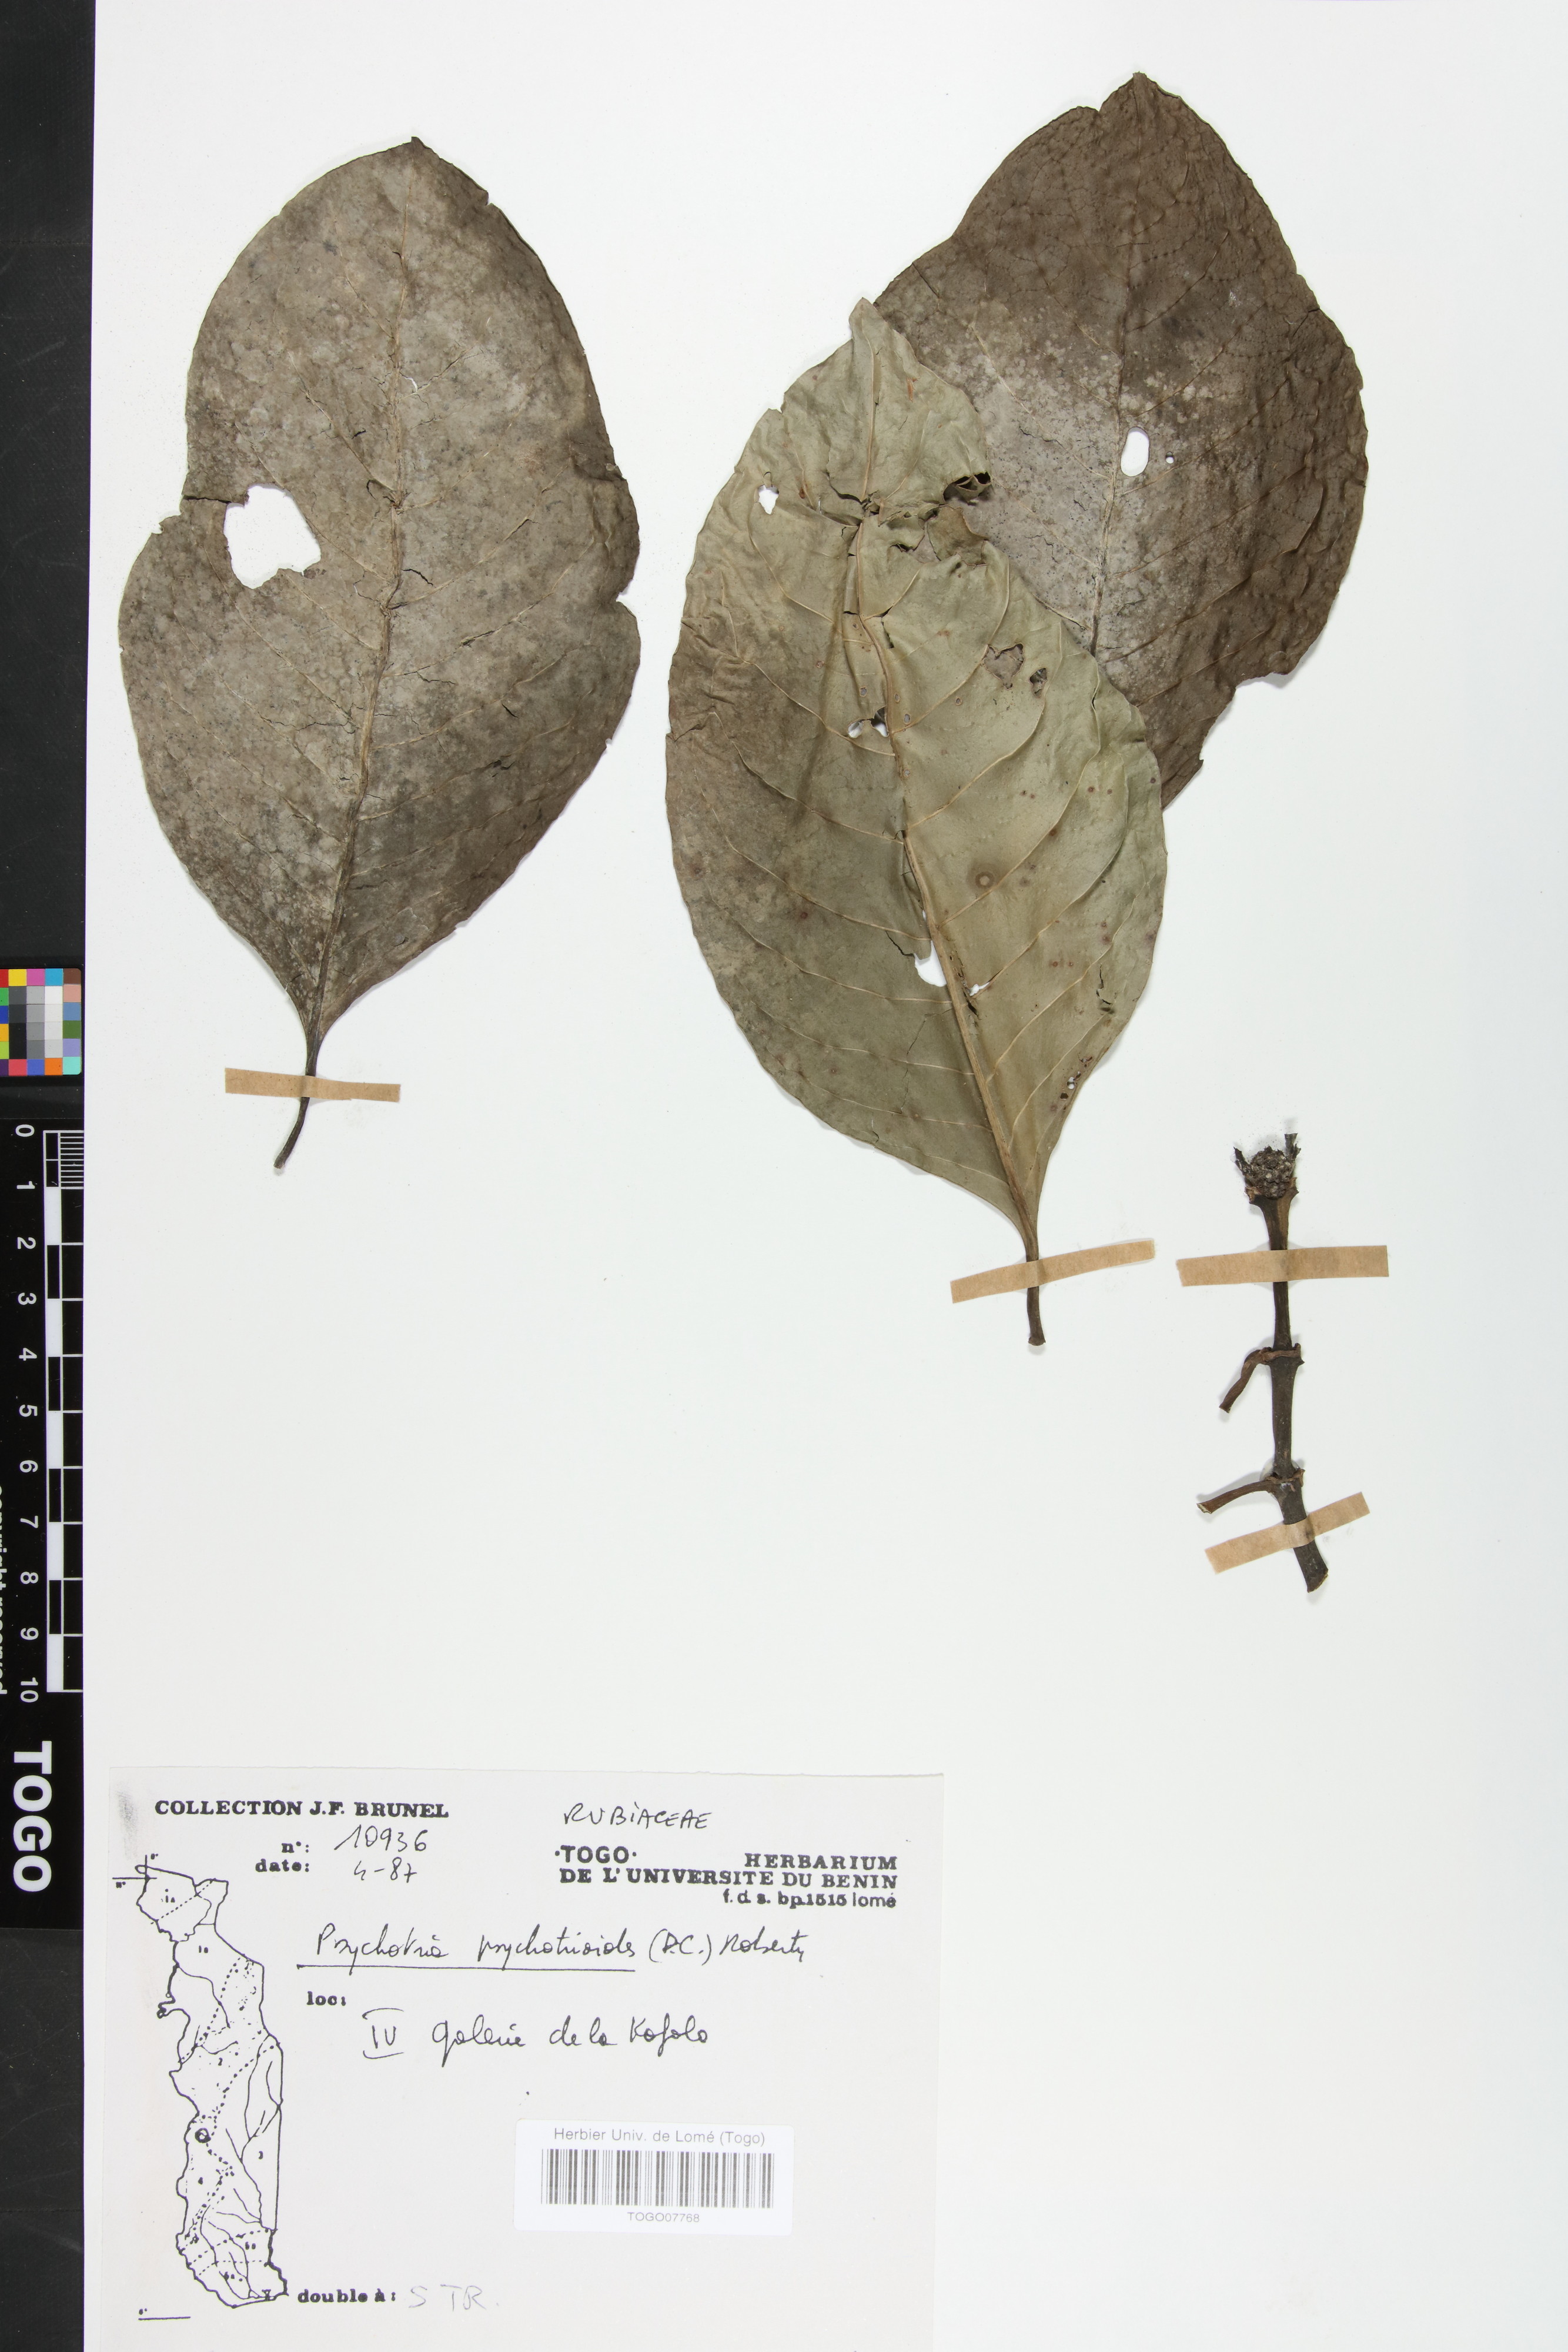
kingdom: Plantae
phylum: Tracheophyta
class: Magnoliopsida
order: Gentianales
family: Rubiaceae
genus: Psychotria
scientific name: Psychotria psychotrioides
